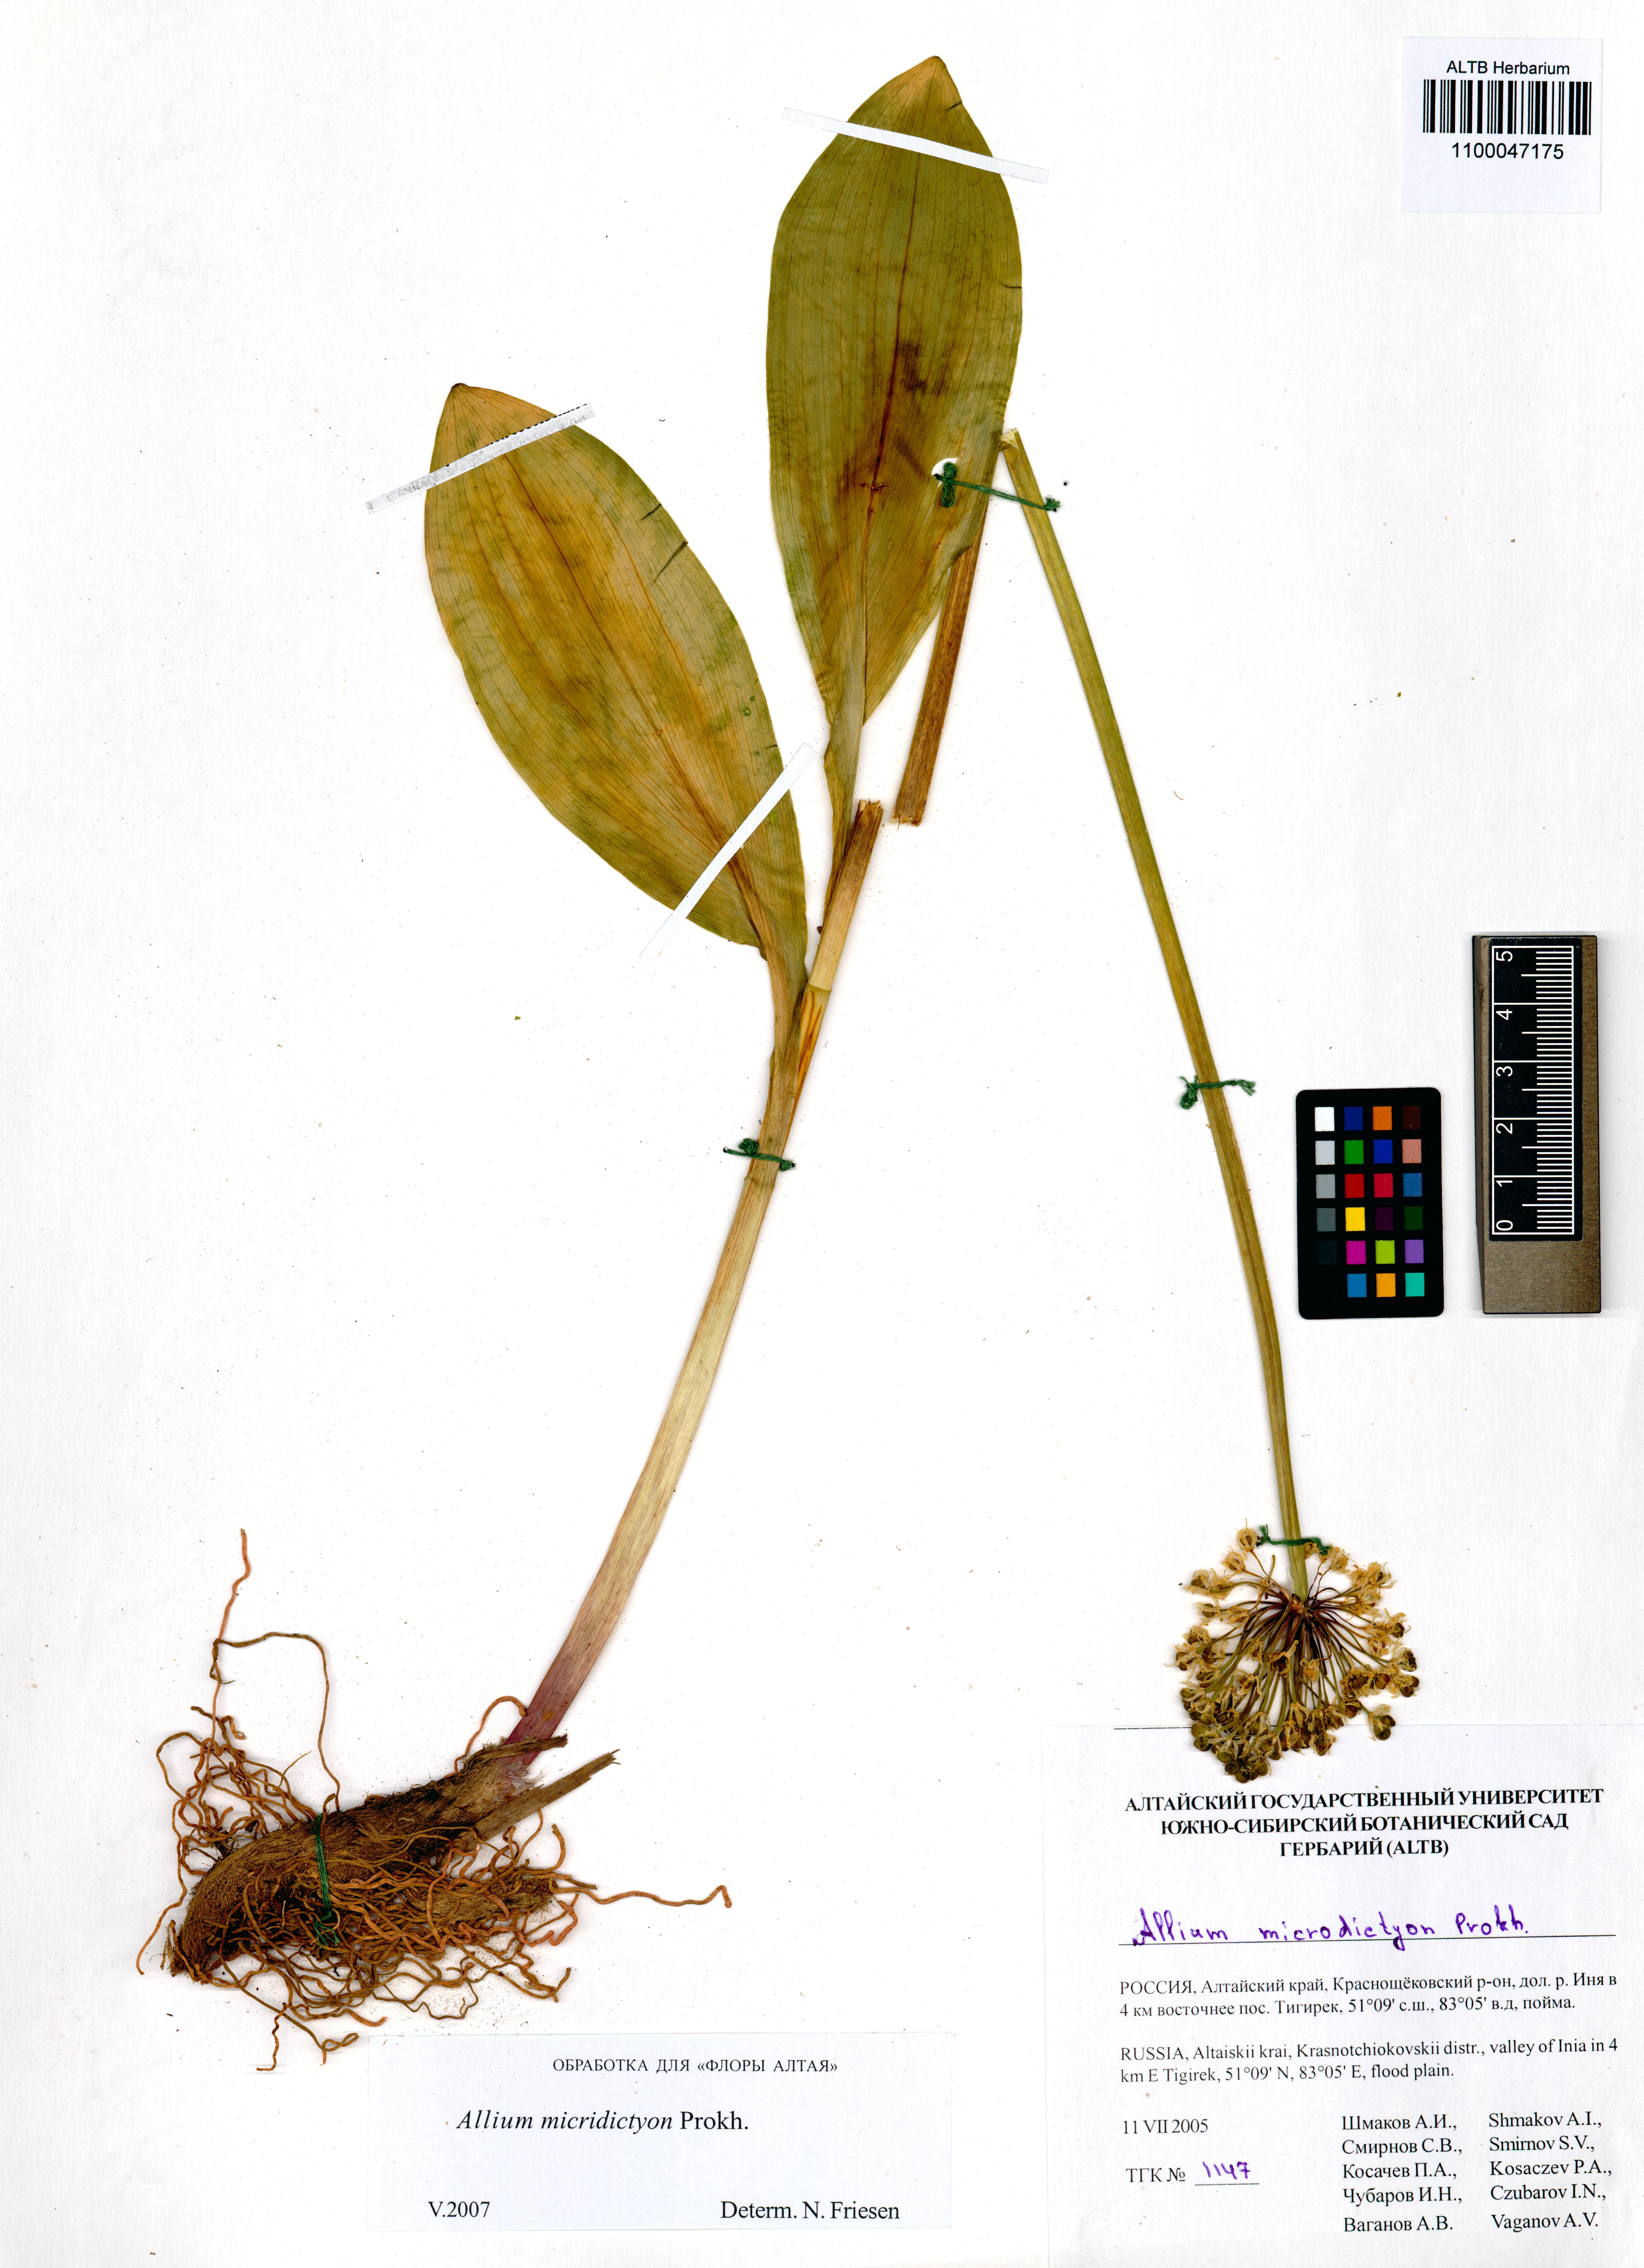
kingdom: Plantae
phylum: Tracheophyta
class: Liliopsida
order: Asparagales
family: Amaryllidaceae
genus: Allium
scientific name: Allium microdictyon
